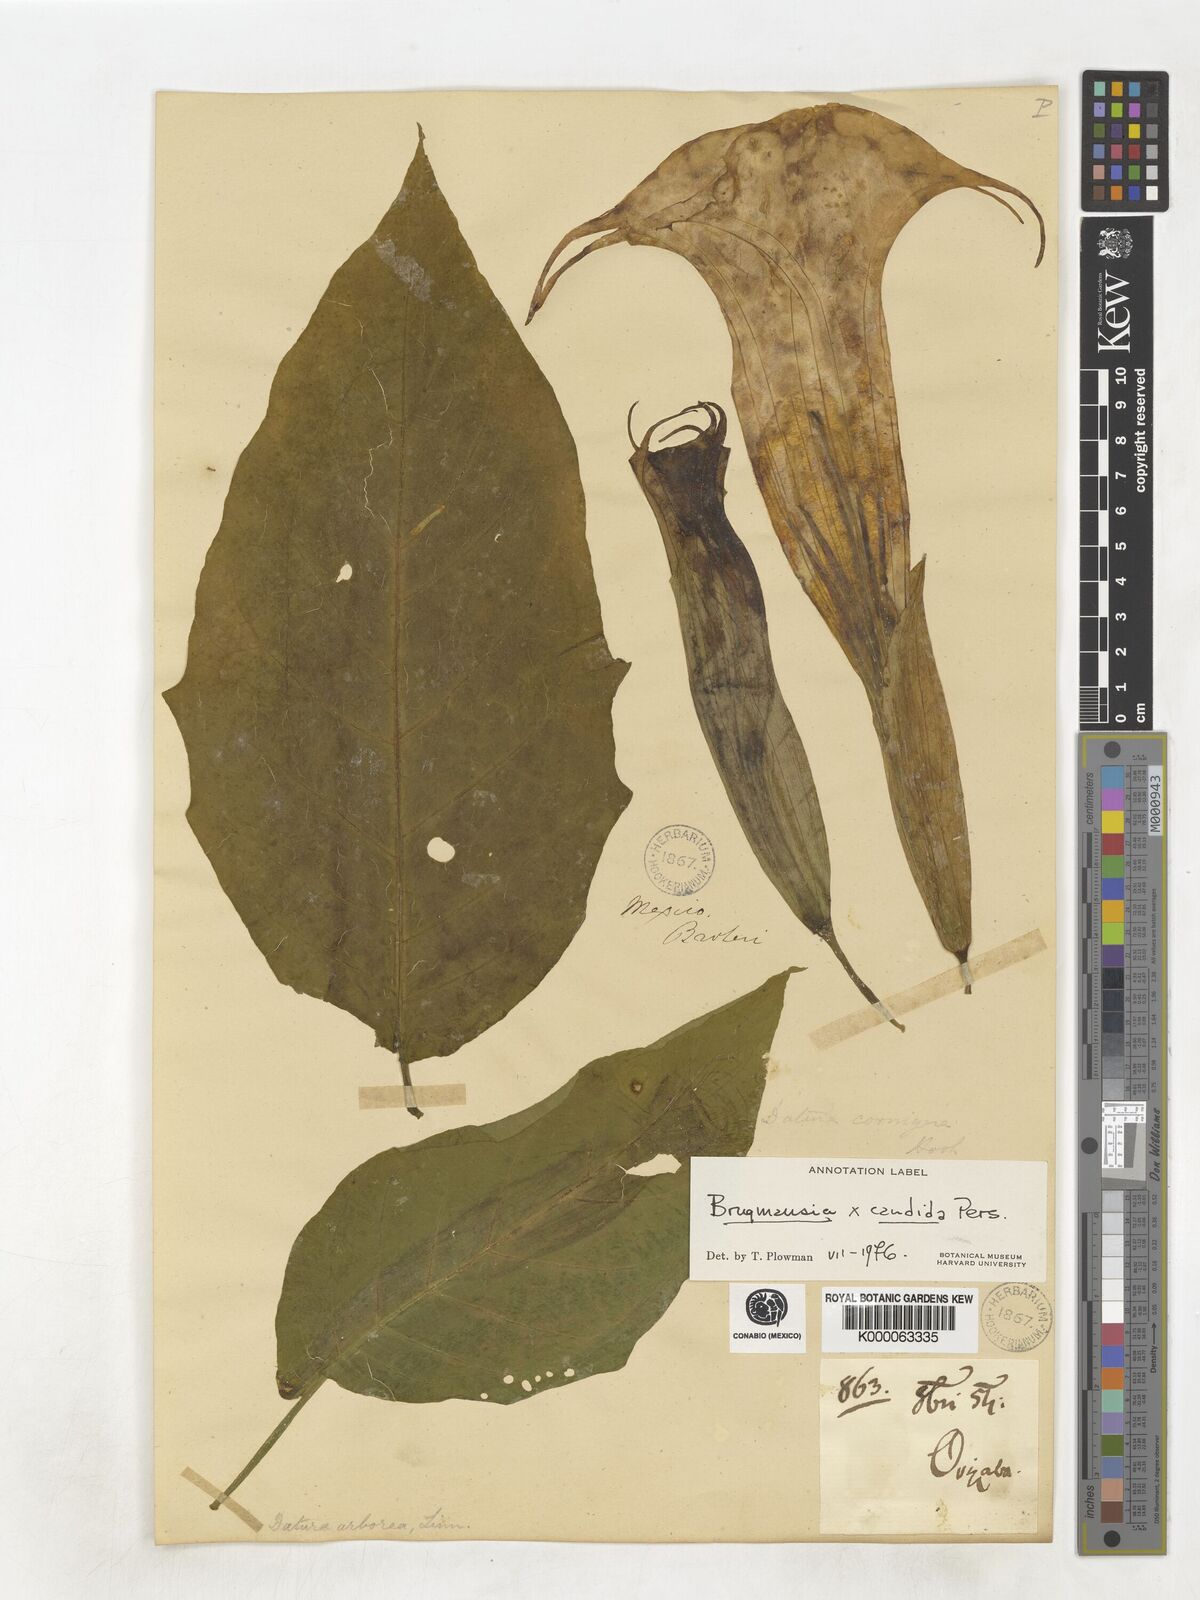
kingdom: Plantae
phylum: Tracheophyta
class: Magnoliopsida
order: Solanales
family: Solanaceae
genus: Brugmansia
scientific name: Brugmansia candida
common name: Angel's-trumpet
